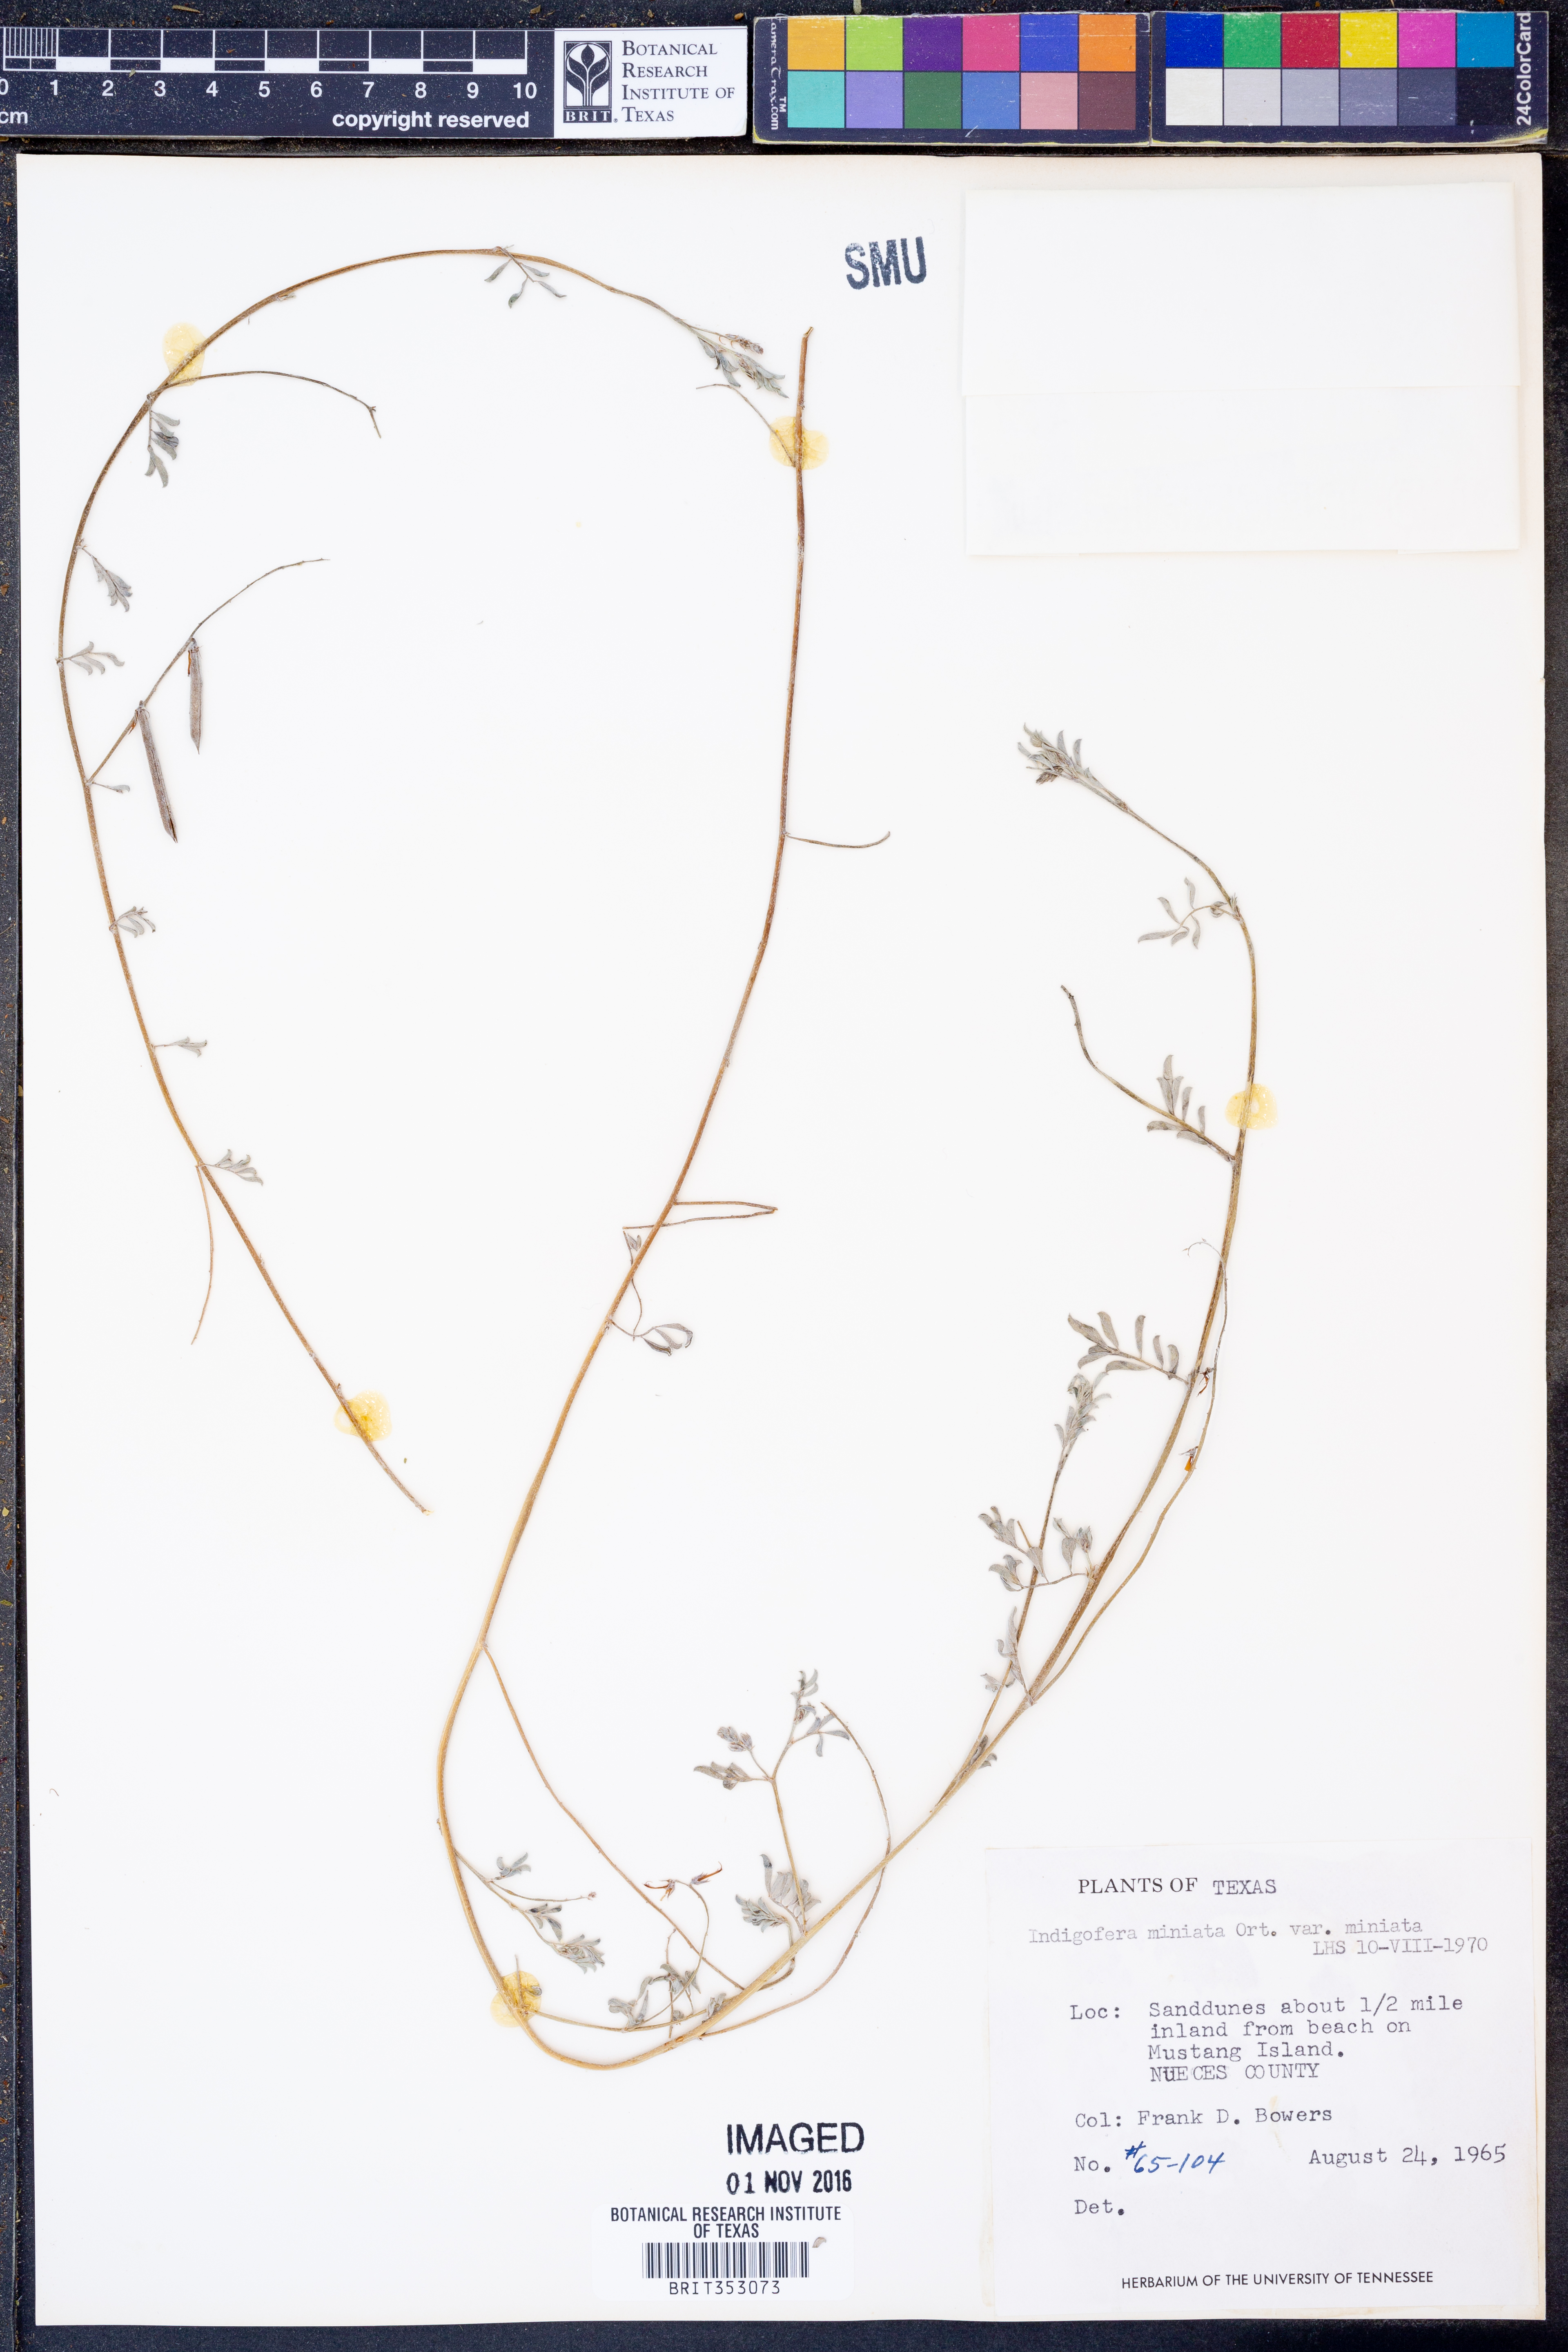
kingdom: Plantae
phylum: Tracheophyta
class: Magnoliopsida
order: Fabales
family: Fabaceae
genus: Indigofera
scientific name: Indigofera miniata
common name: Coast indigo
